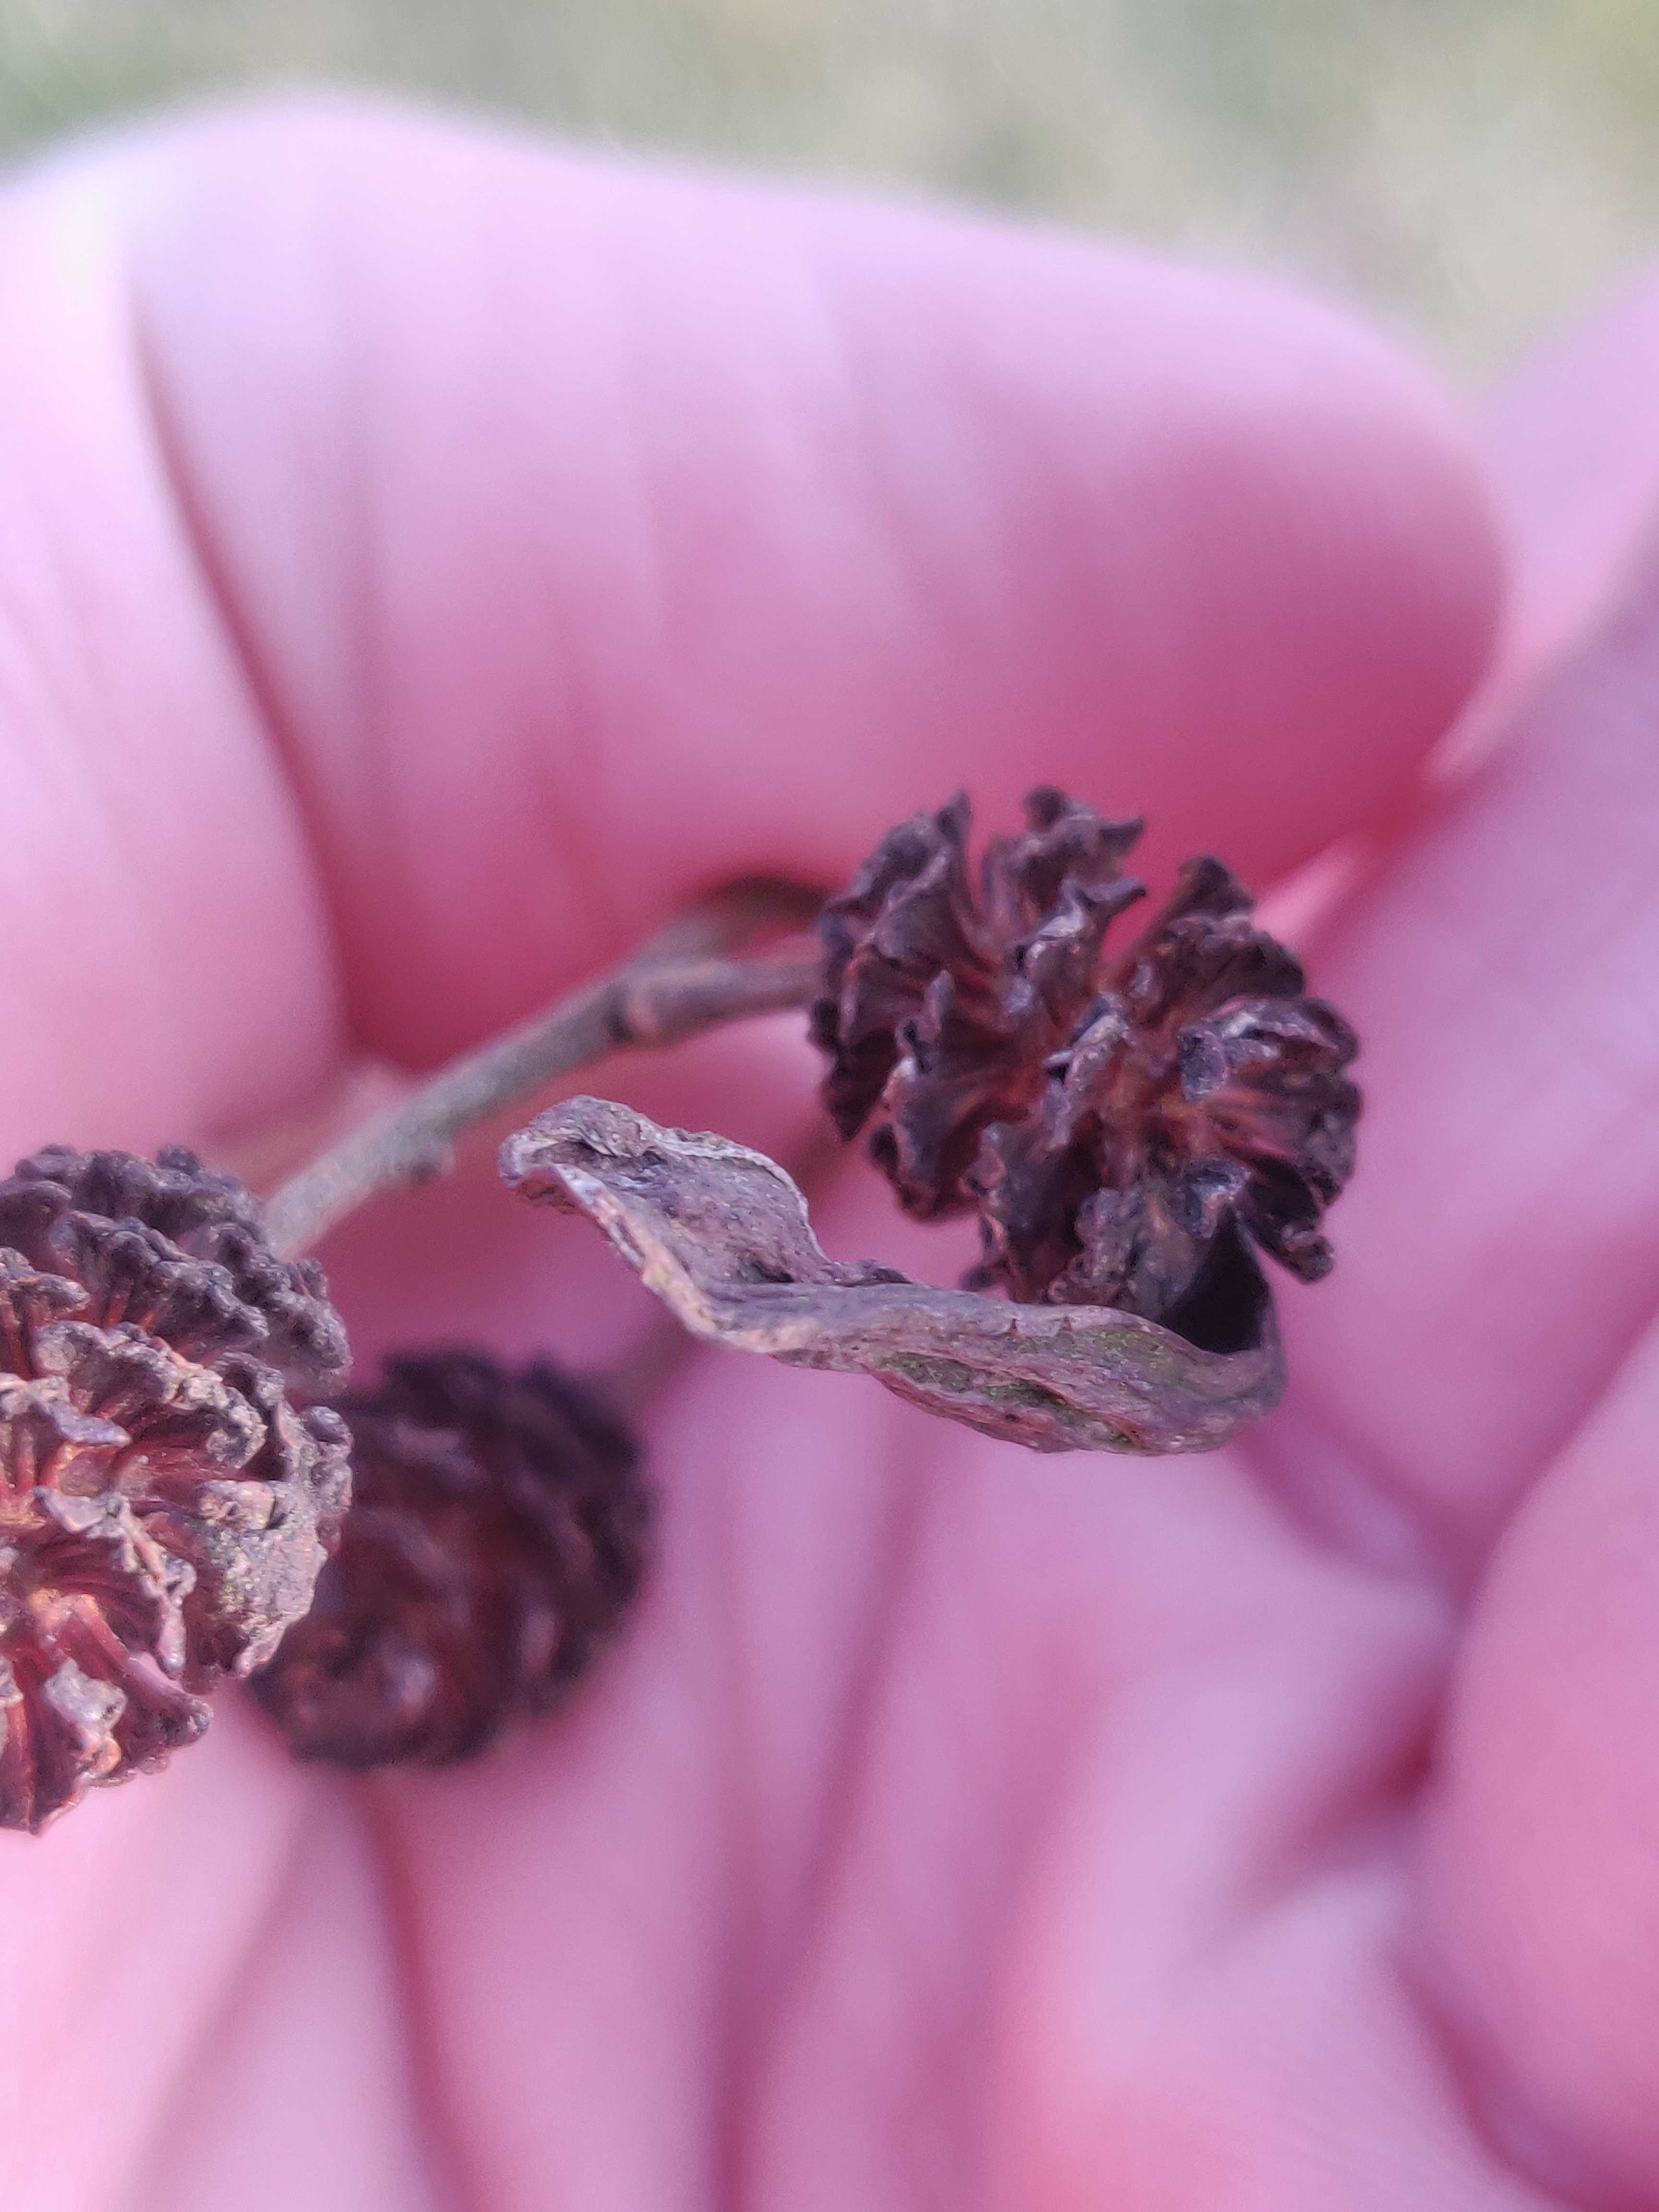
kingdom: Fungi
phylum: Ascomycota
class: Taphrinomycetes
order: Taphrinales
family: Taphrinaceae
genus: Taphrina
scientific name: Taphrina alni
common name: Alder tongue
